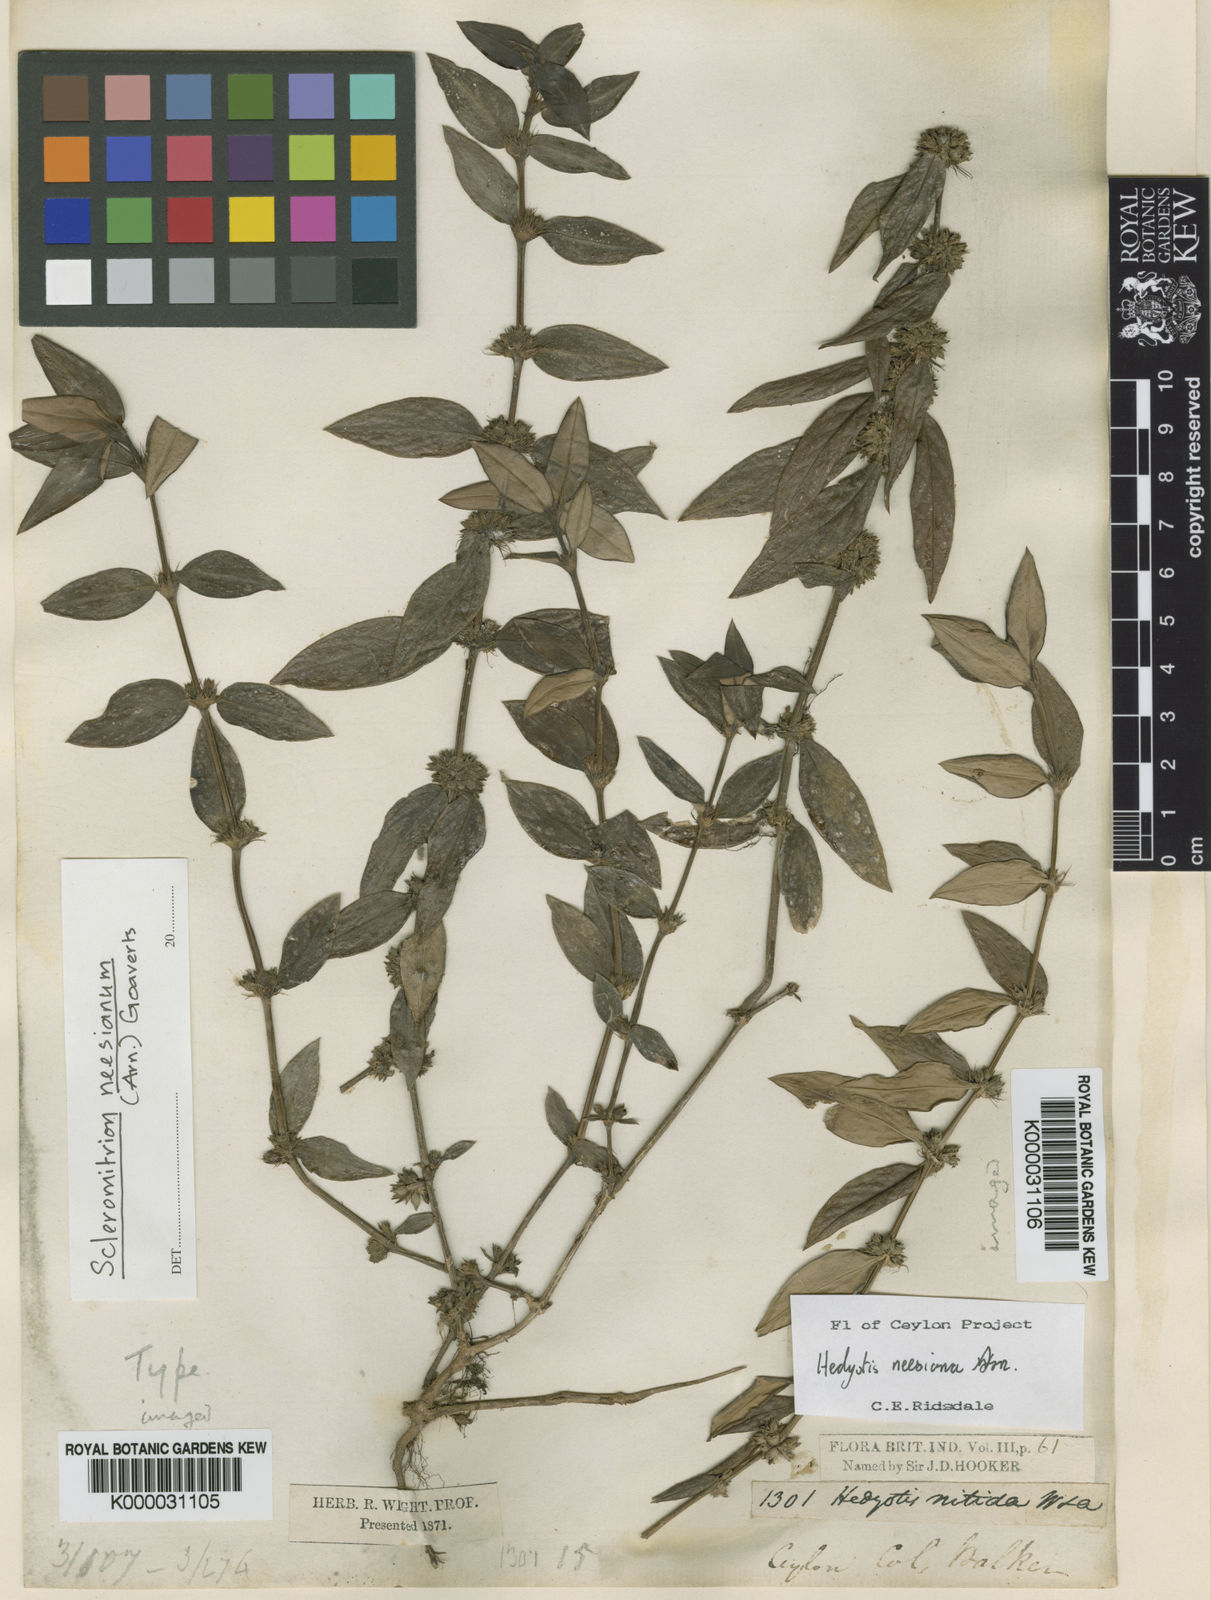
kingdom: Plantae
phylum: Tracheophyta
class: Magnoliopsida
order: Gentianales
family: Rubiaceae
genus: Hedyotis
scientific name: Hedyotis neesiana
